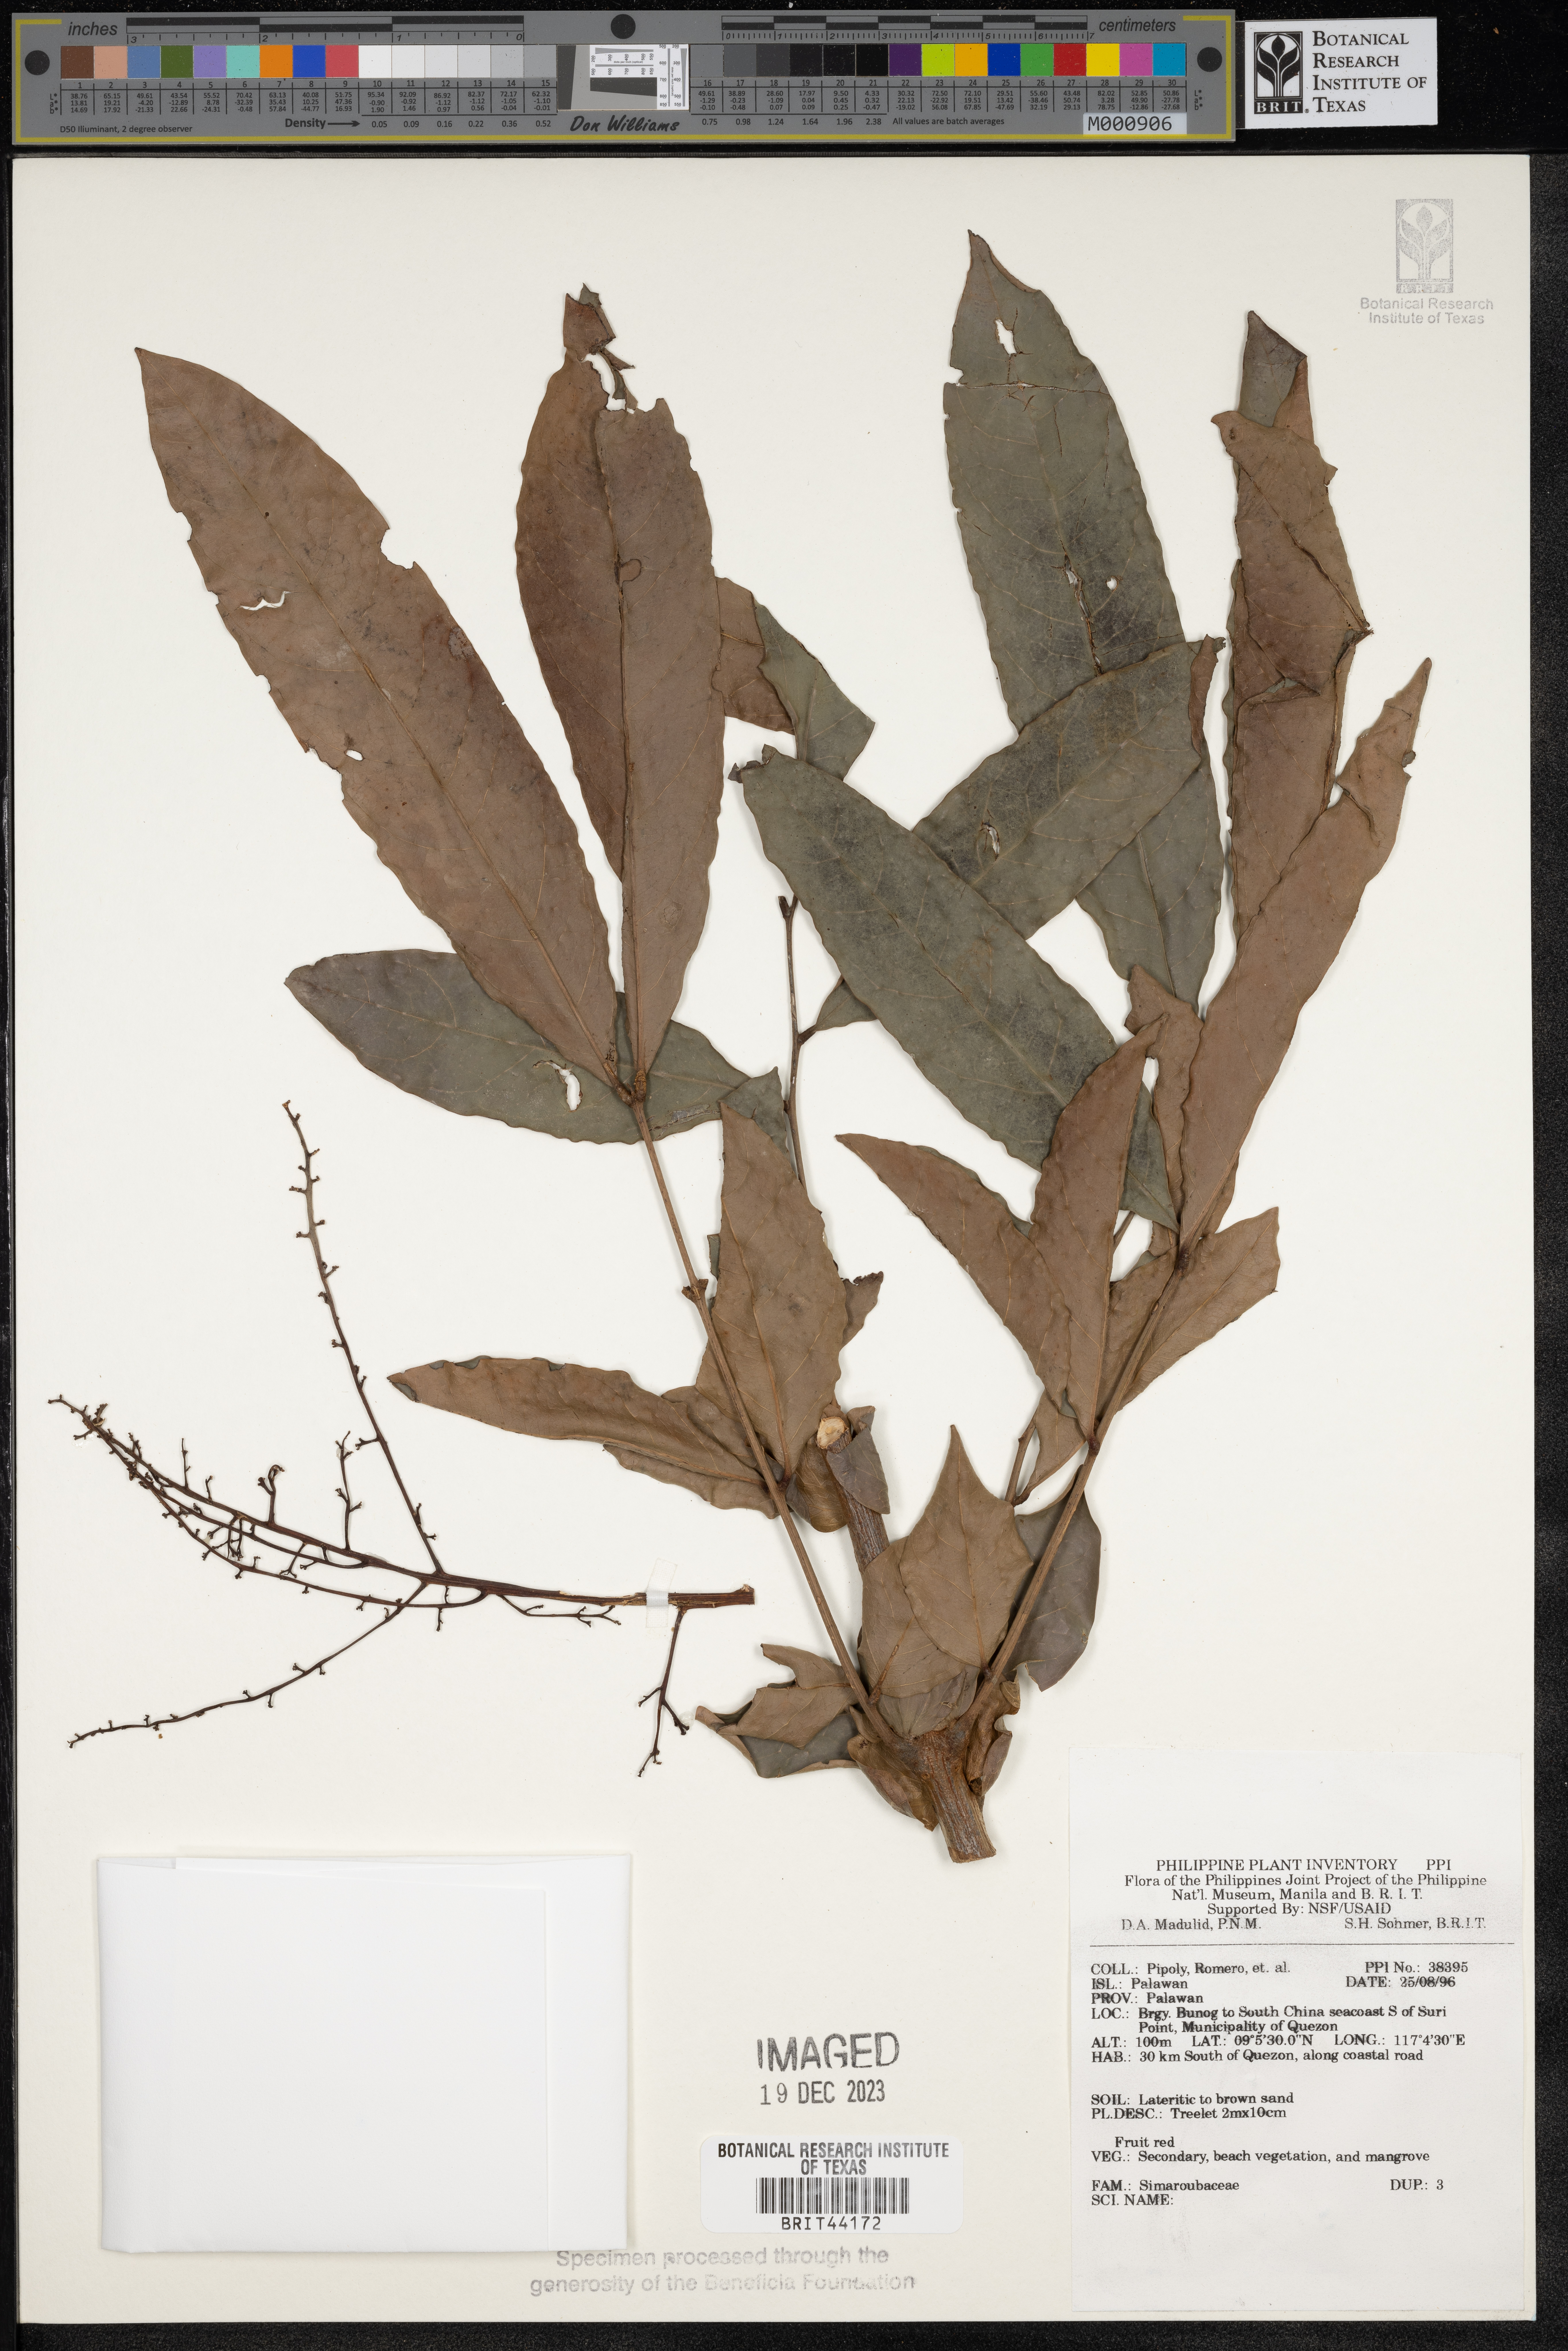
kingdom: Plantae
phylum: Tracheophyta
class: Magnoliopsida
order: Sapindales
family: Simaroubaceae
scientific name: Simaroubaceae
